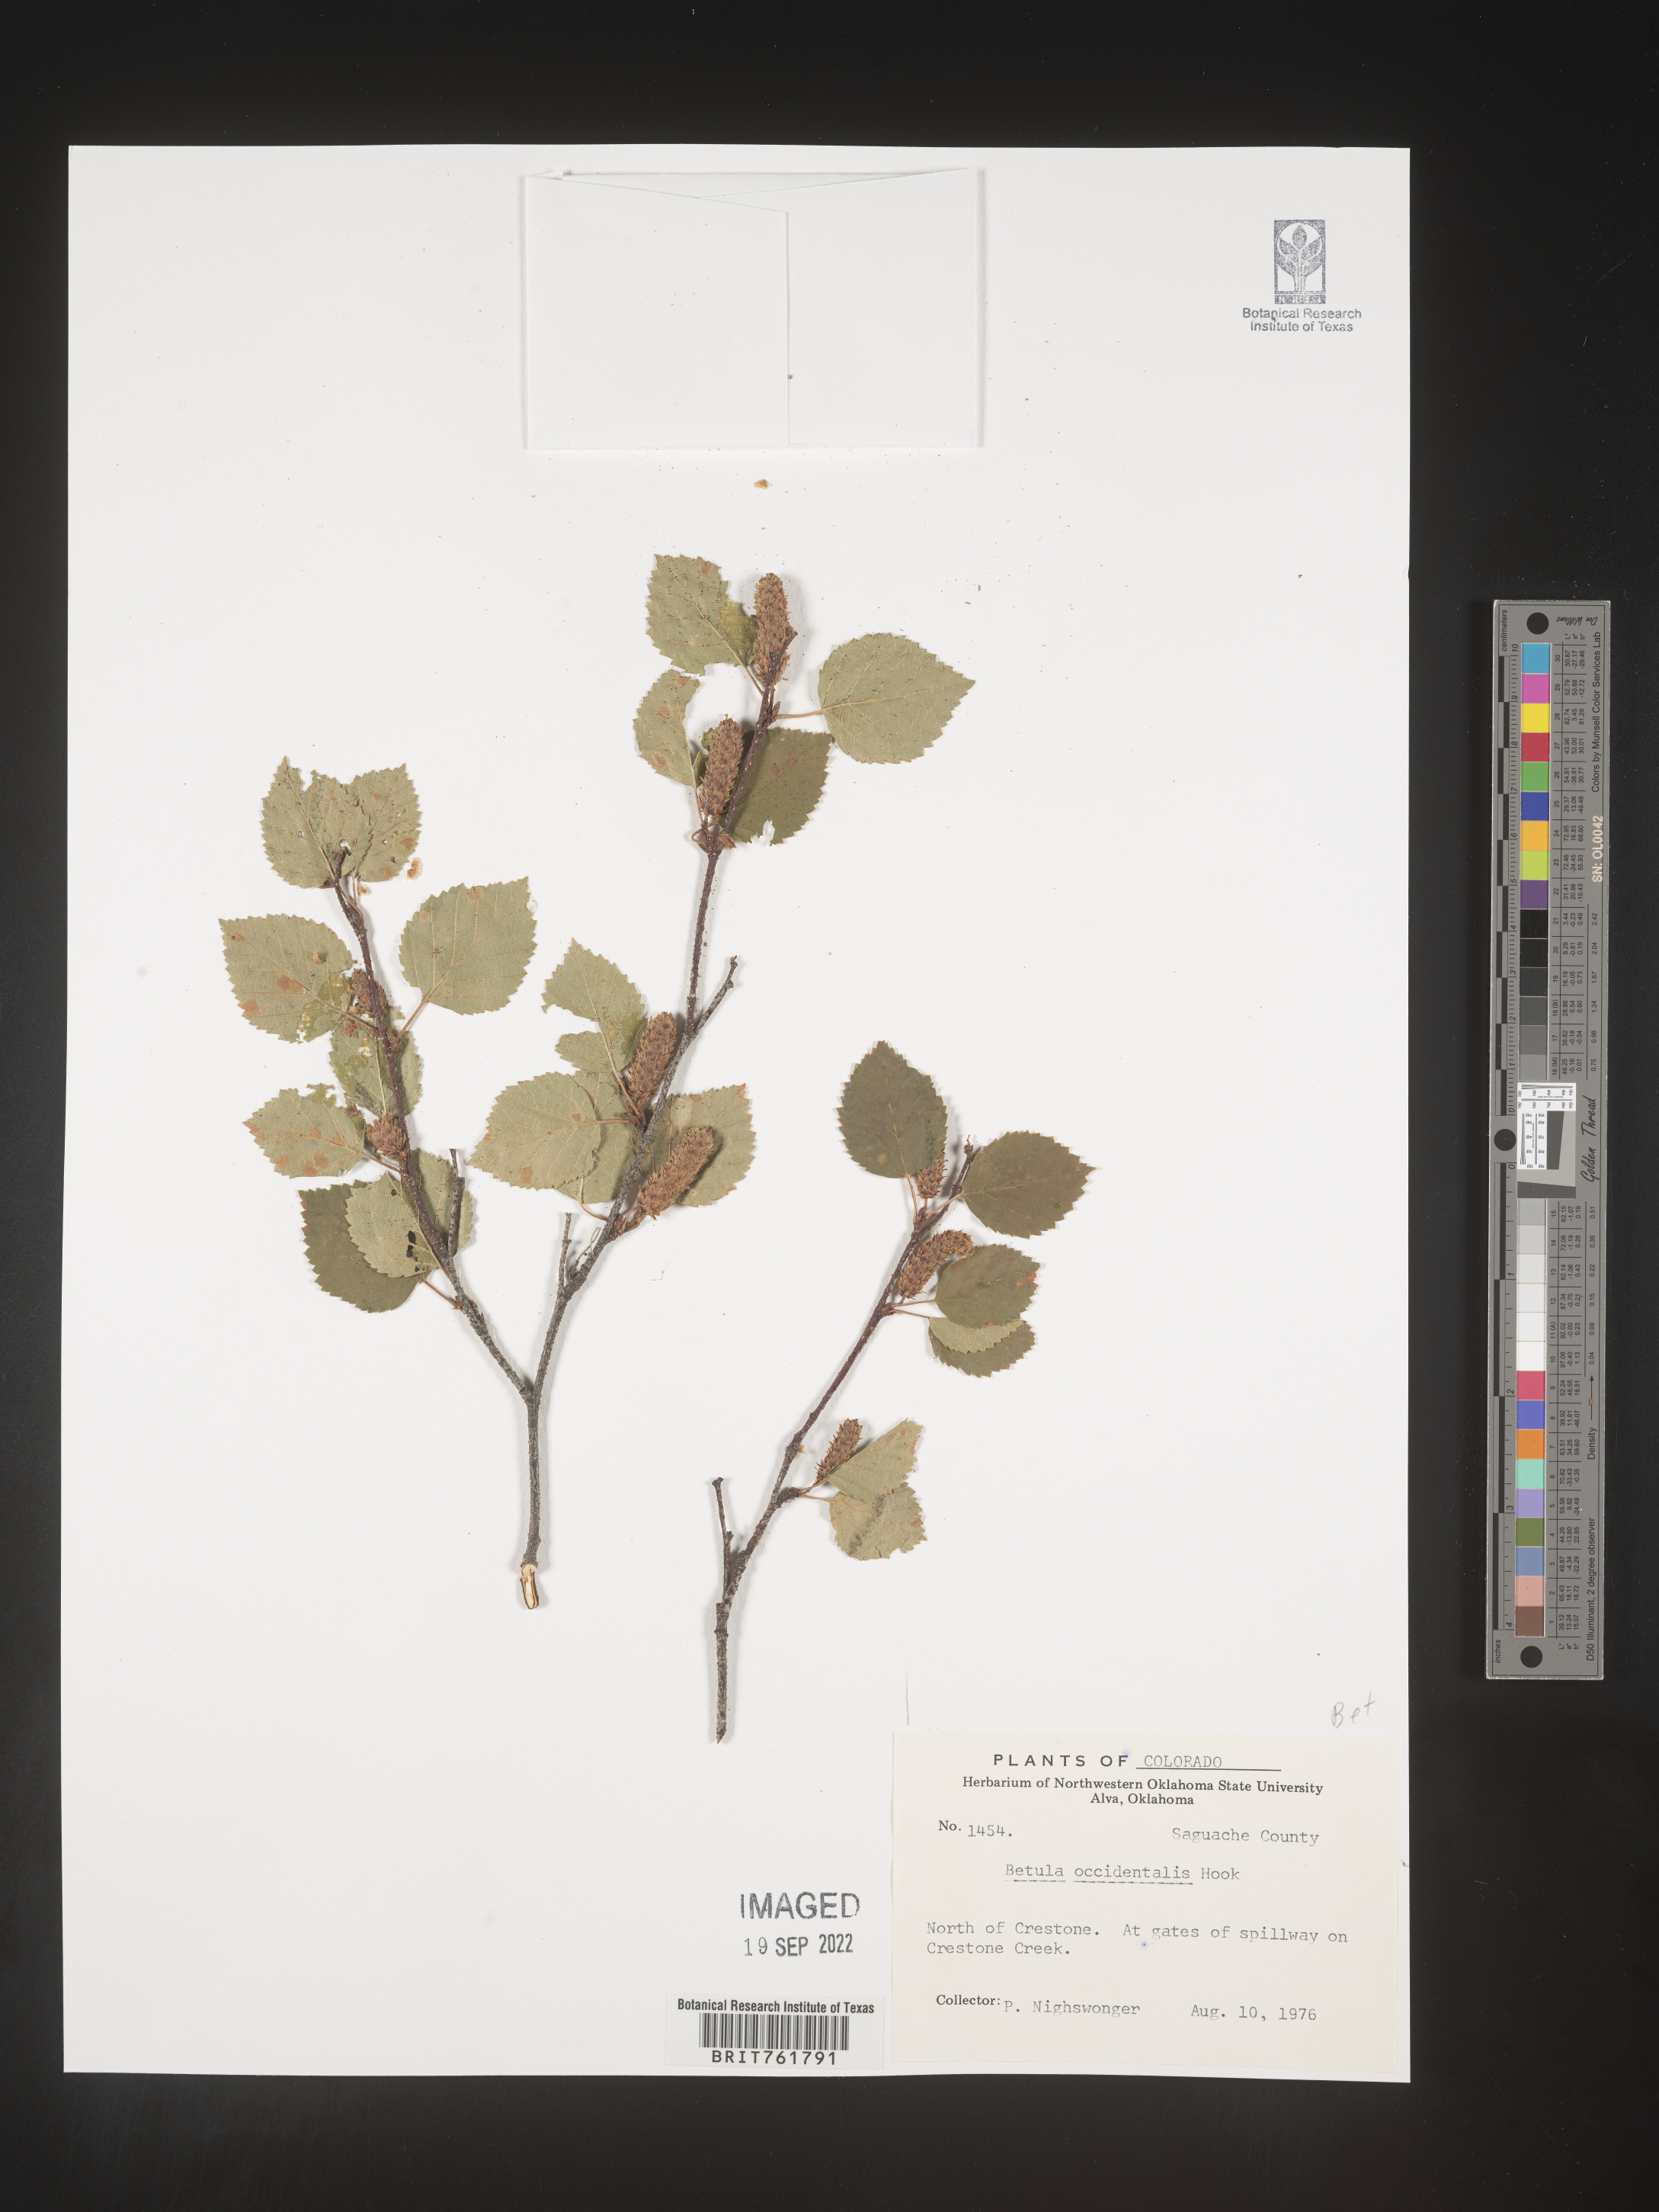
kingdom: Plantae
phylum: Tracheophyta
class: Magnoliopsida
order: Fagales
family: Betulaceae
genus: Betula
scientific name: Betula occidentalis
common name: River birch
